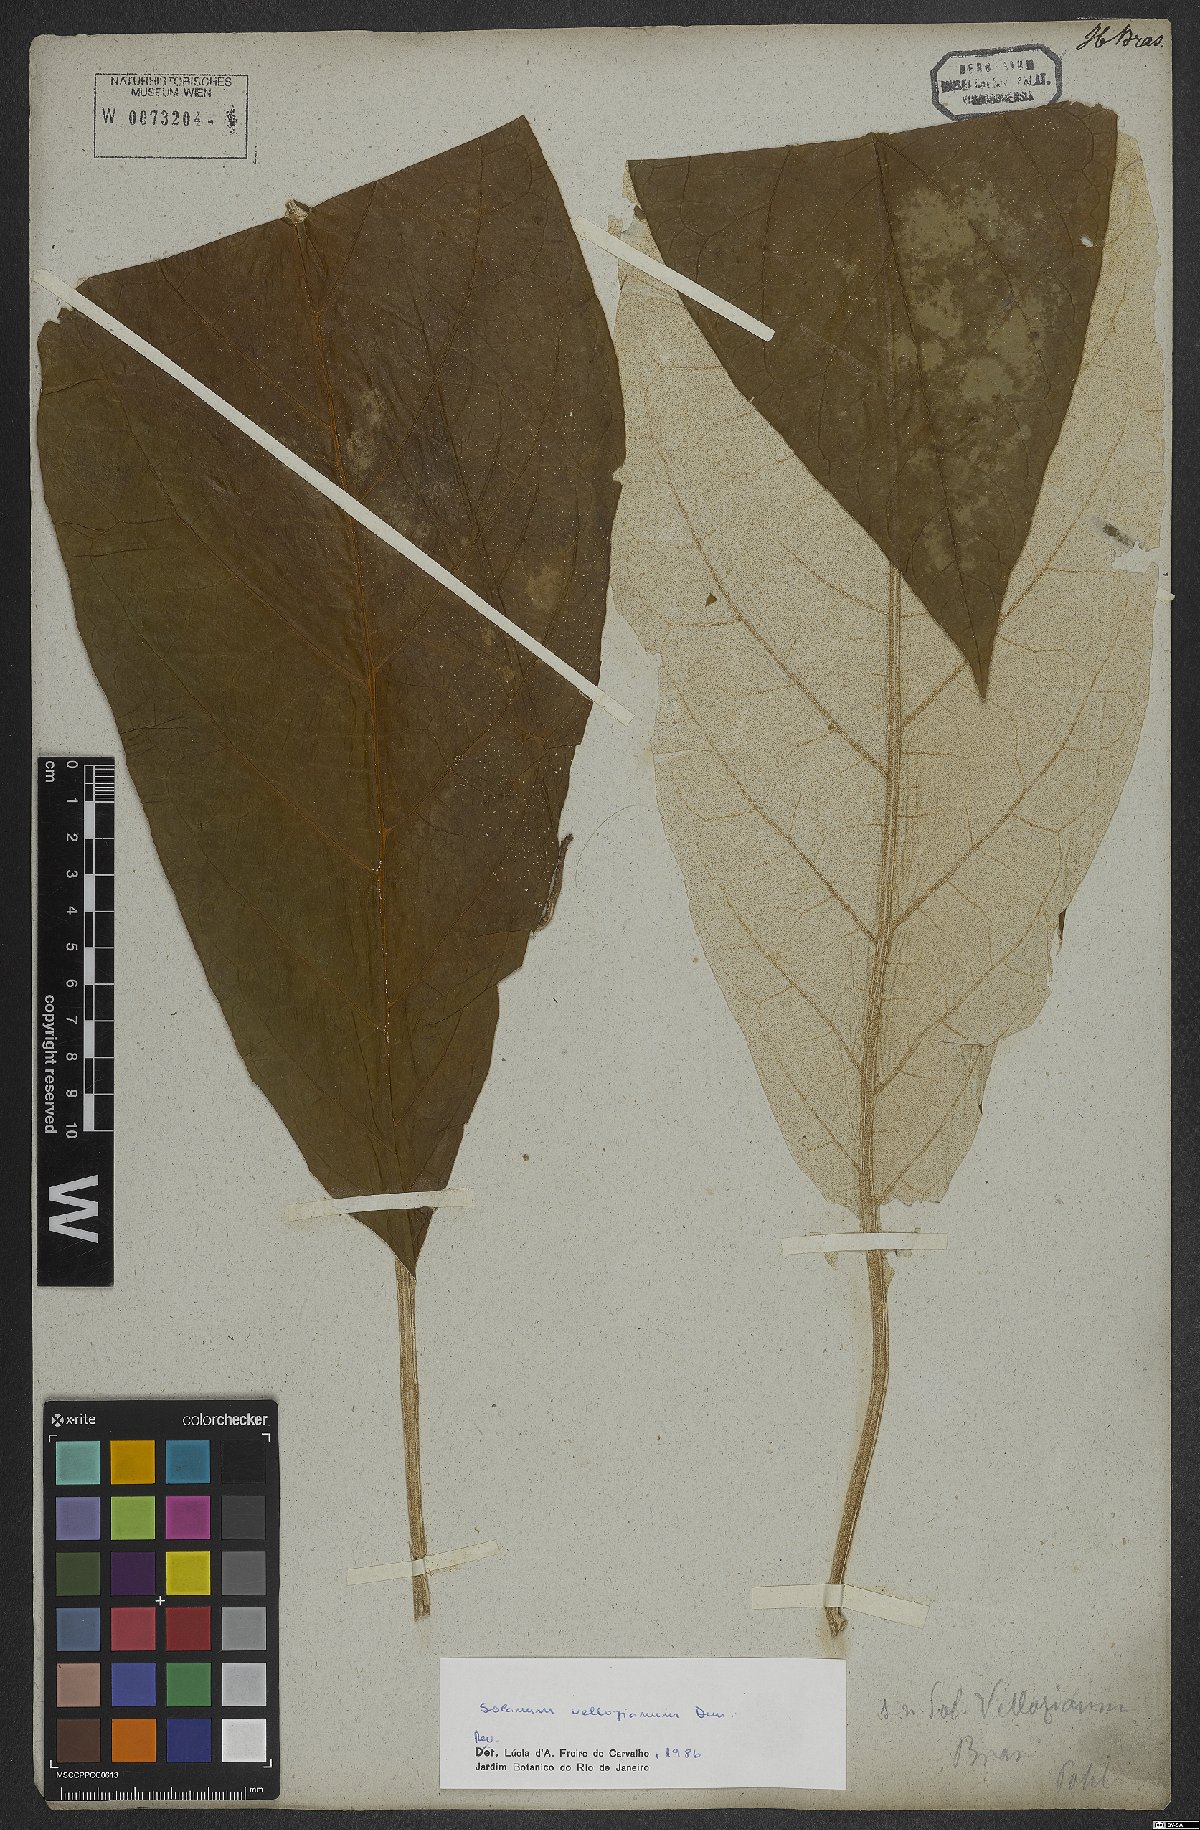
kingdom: Plantae
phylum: Tracheophyta
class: Magnoliopsida
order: Solanales
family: Solanaceae
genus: Solanum
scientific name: Solanum vellozianum
